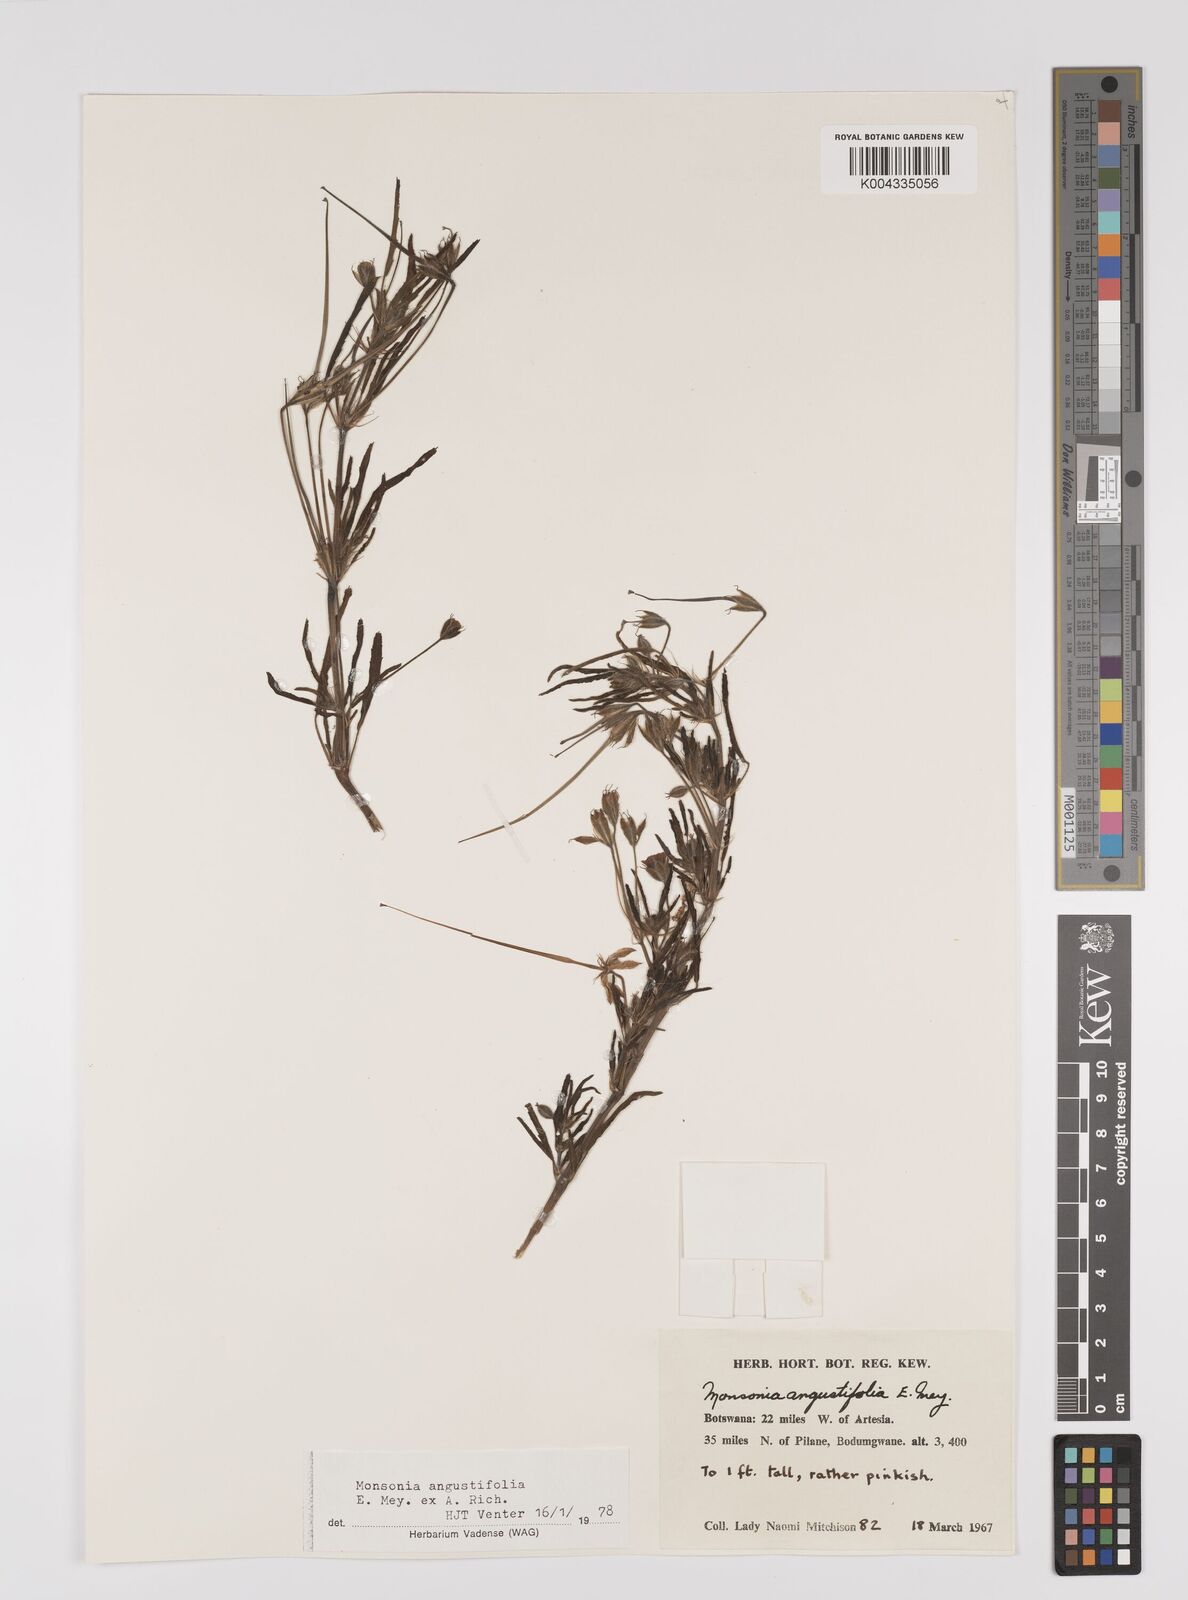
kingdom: Plantae
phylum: Tracheophyta
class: Magnoliopsida
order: Geraniales
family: Geraniaceae
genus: Monsonia
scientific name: Monsonia angustifolia
